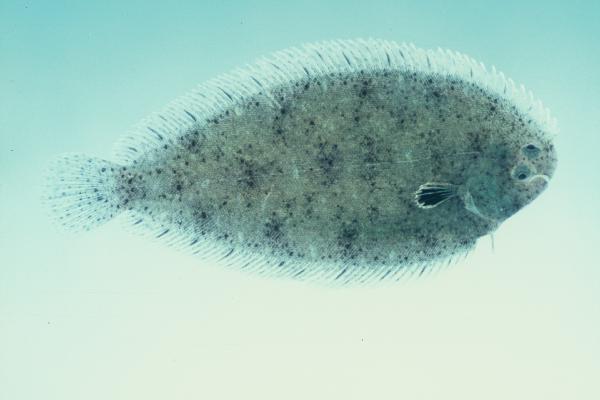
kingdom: Animalia
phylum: Chordata
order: Pleuronectiformes
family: Soleidae
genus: Solea
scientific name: Solea turbynei
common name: Blackhand sole
